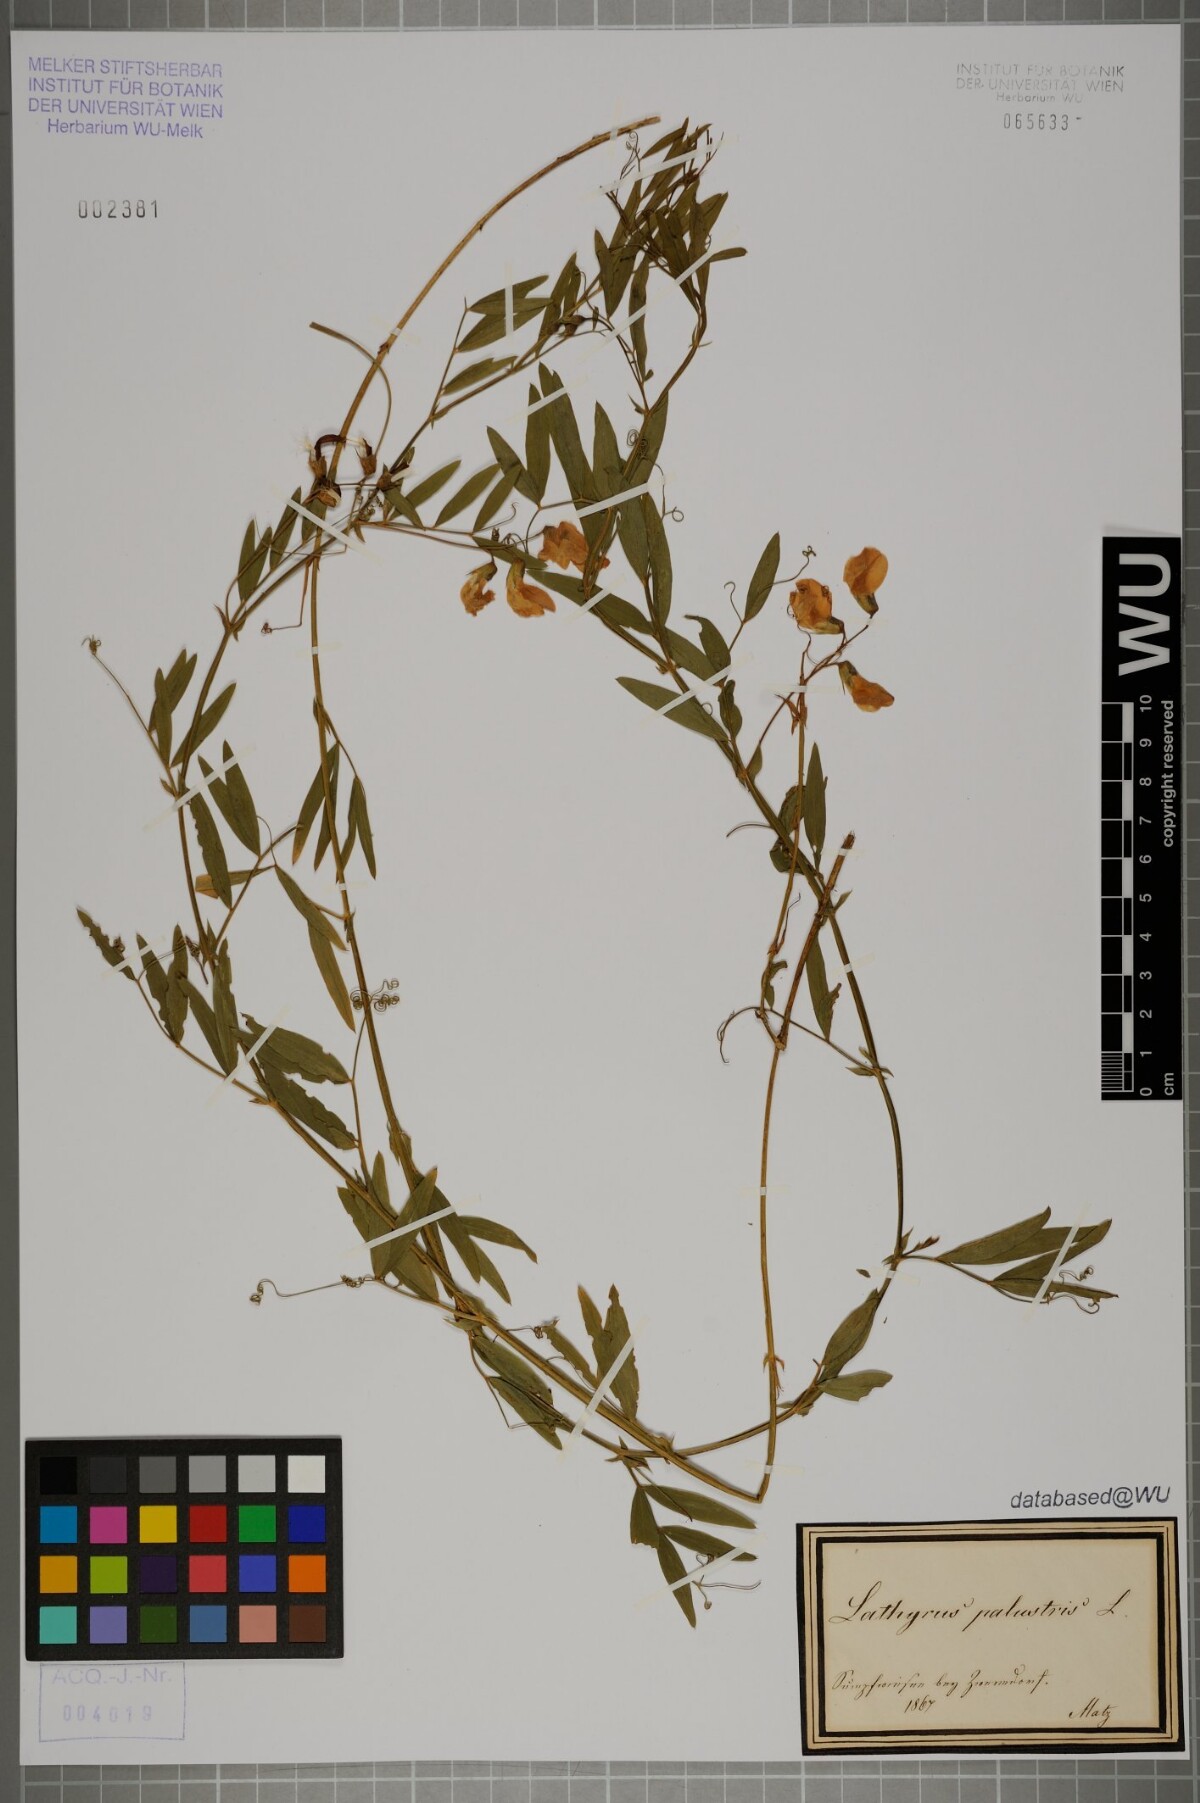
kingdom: Plantae
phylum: Tracheophyta
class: Magnoliopsida
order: Fabales
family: Fabaceae
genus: Lathyrus
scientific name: Lathyrus palustris
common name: Marsh pea
